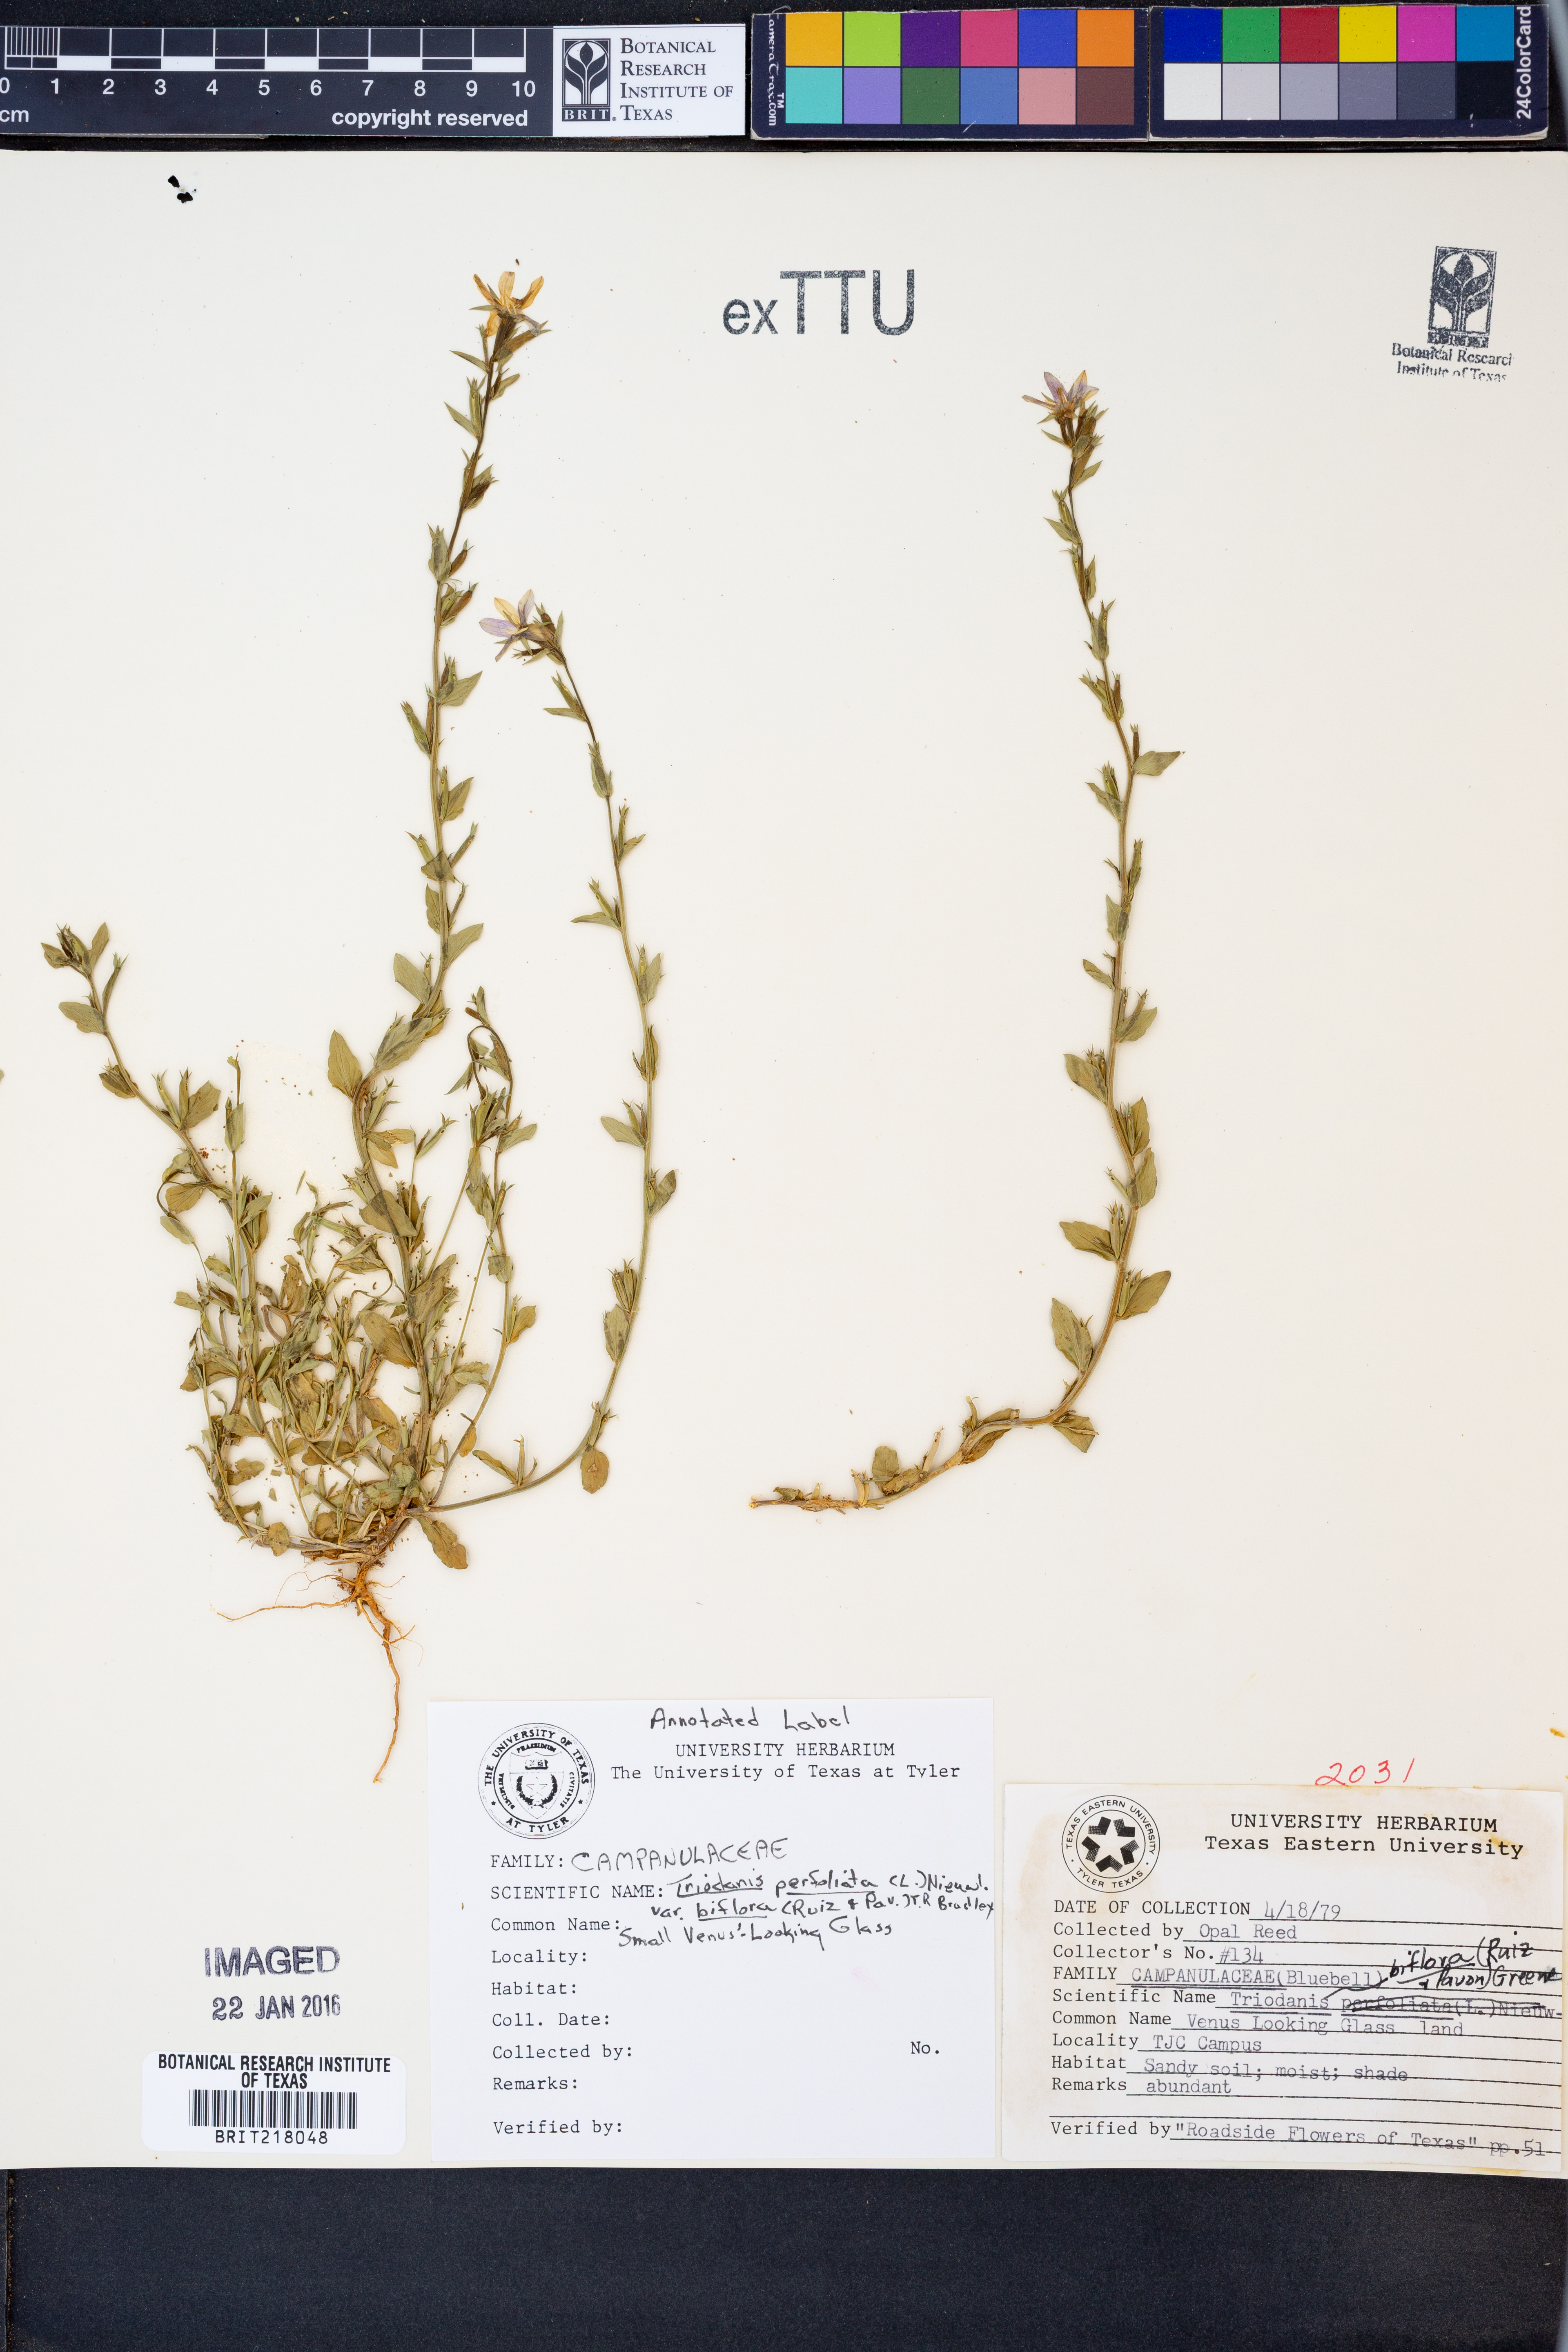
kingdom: Plantae
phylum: Tracheophyta
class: Magnoliopsida
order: Asterales
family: Campanulaceae
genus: Triodanis
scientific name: Triodanis perfoliata
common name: Clasping venus' looking-glass
